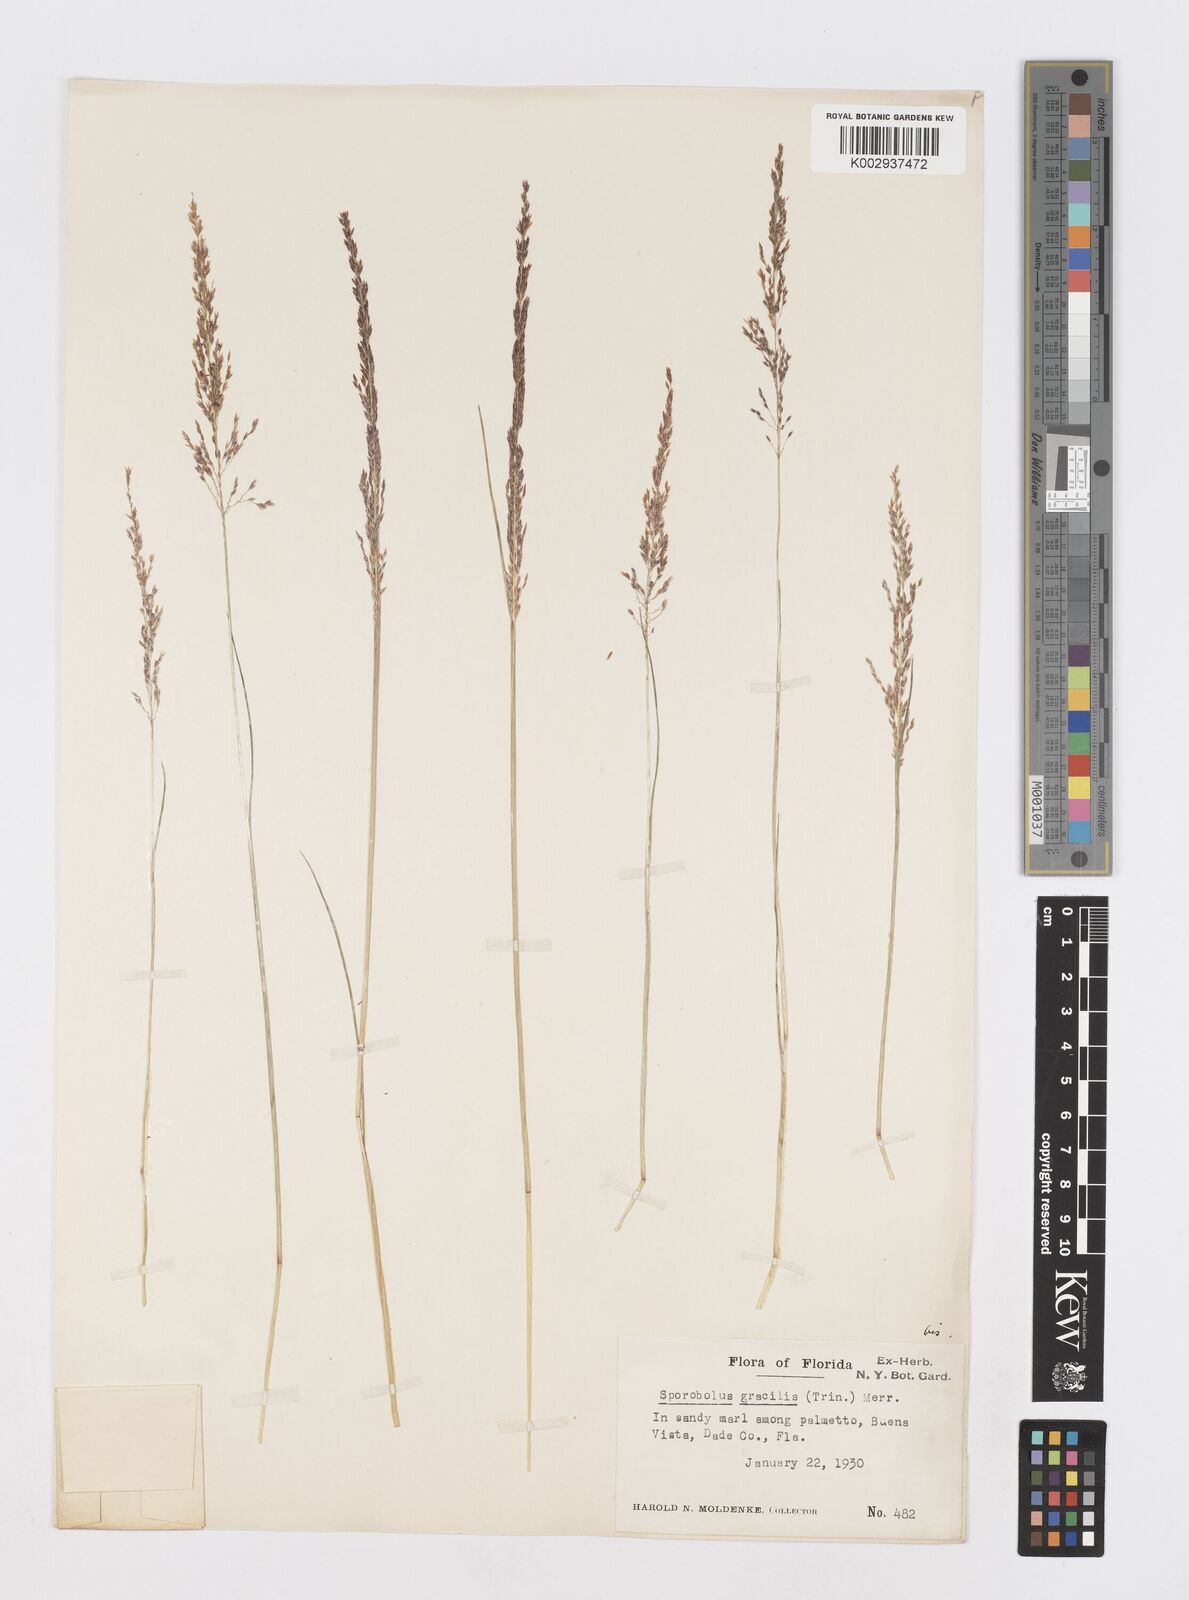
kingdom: Plantae
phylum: Tracheophyta
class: Liliopsida
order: Poales
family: Poaceae
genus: Sporobolus
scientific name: Sporobolus junceus
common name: Lizard grass
